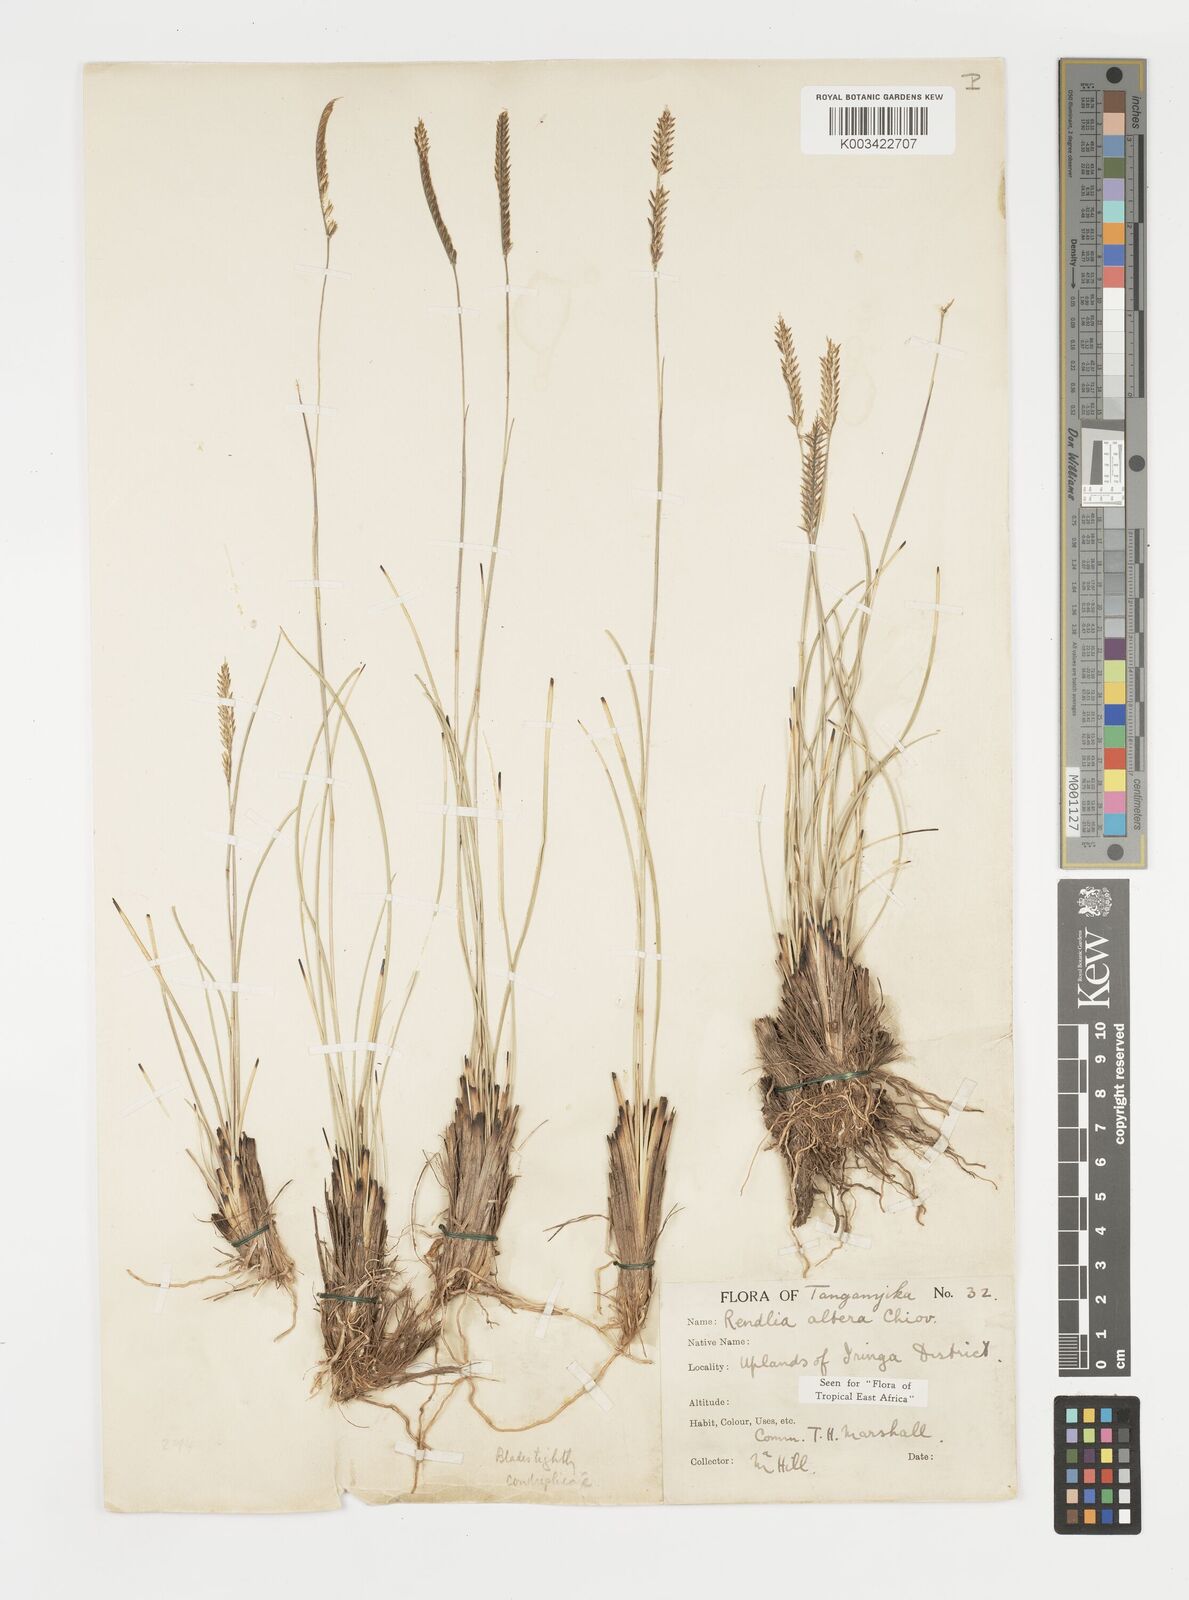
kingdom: Plantae
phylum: Tracheophyta
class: Liliopsida
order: Poales
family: Poaceae
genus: Microchloa
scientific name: Microchloa altera
